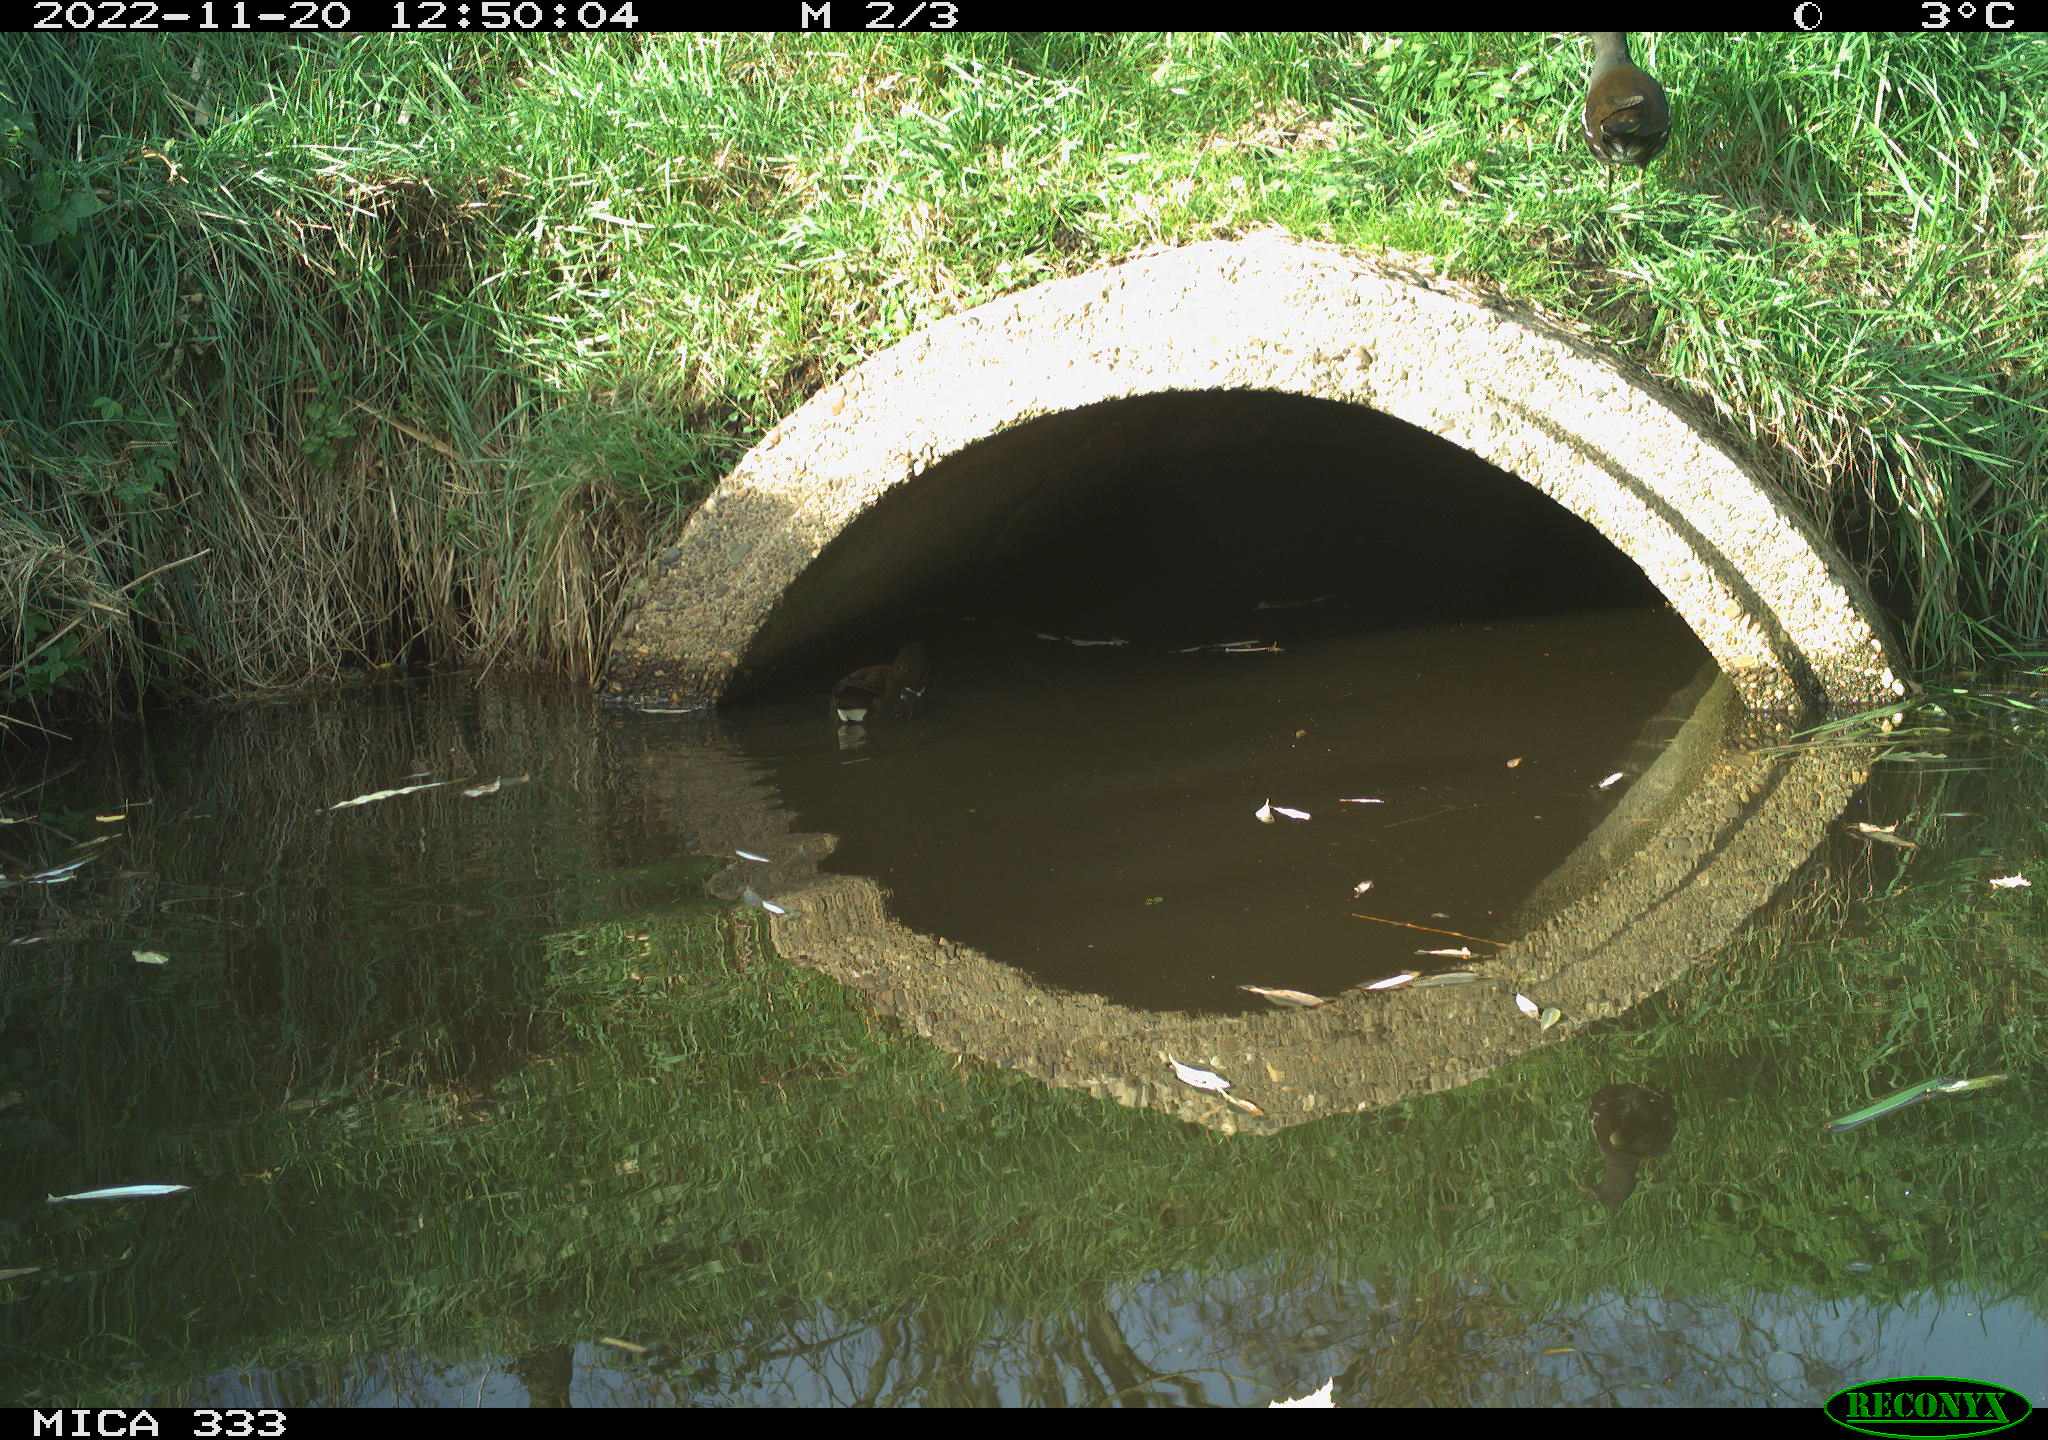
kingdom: Animalia
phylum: Chordata
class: Aves
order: Gruiformes
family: Rallidae
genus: Gallinula
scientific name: Gallinula chloropus
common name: Common moorhen
